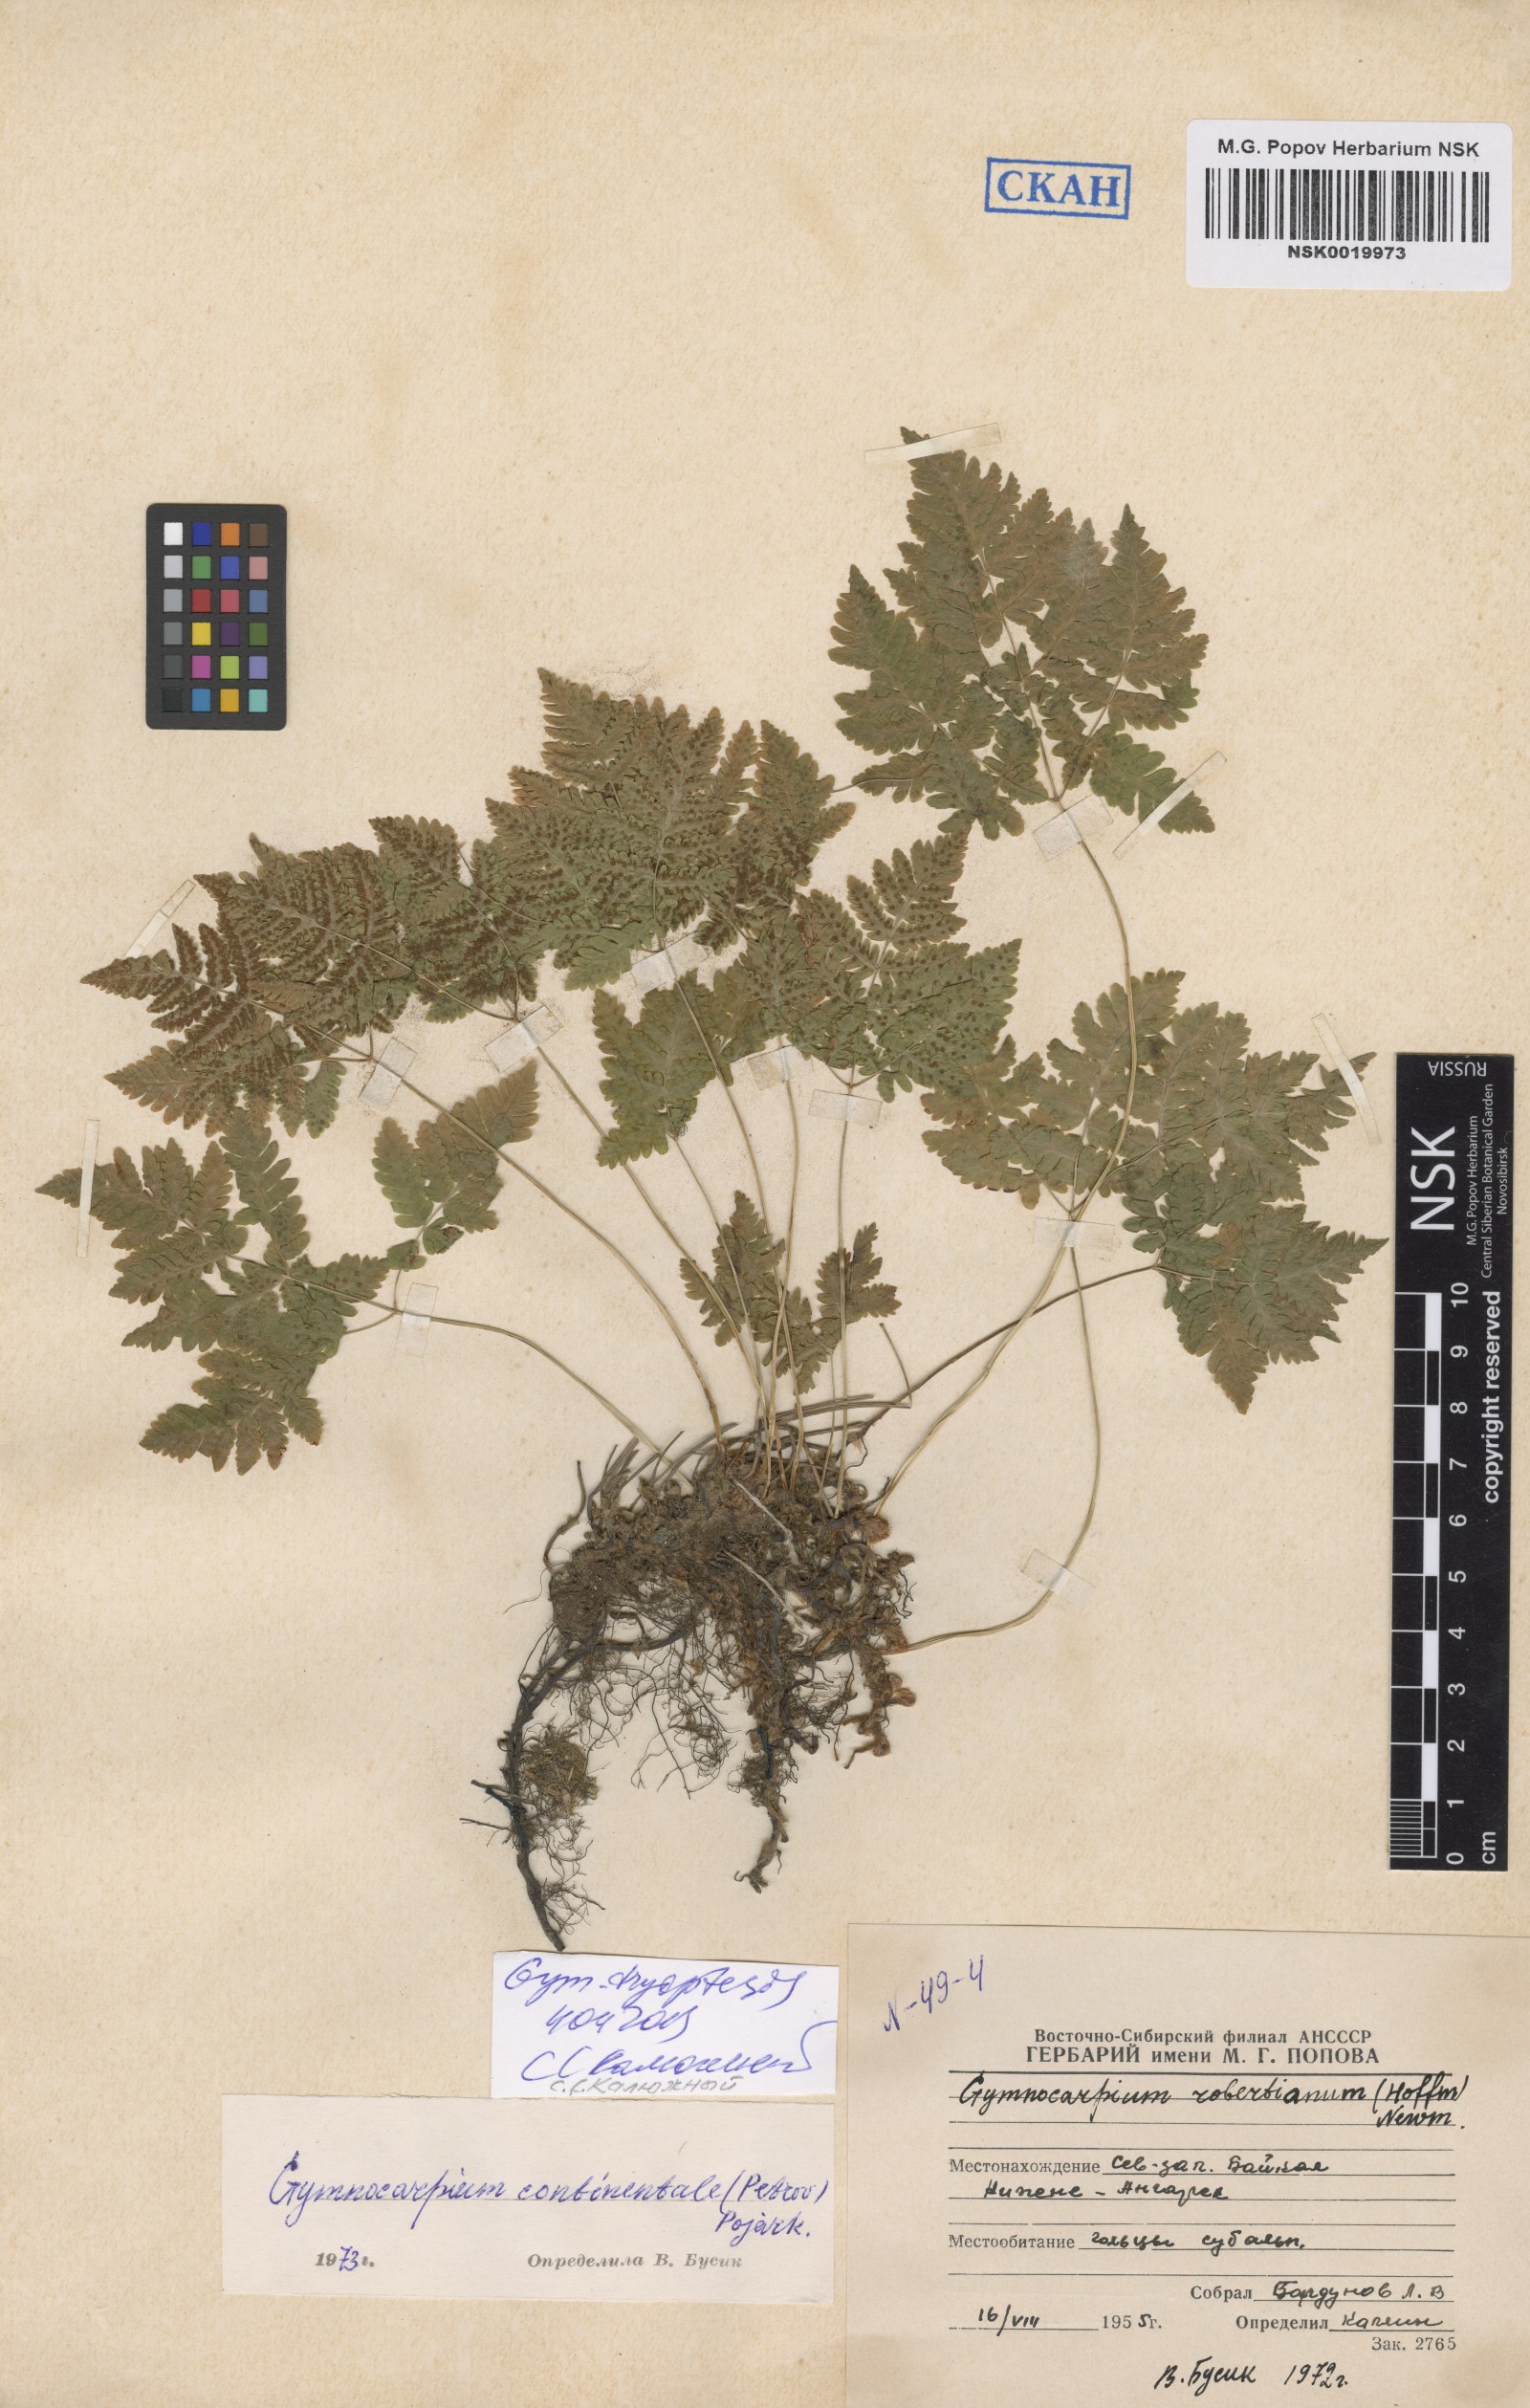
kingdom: Plantae
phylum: Tracheophyta
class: Polypodiopsida
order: Polypodiales
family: Cystopteridaceae
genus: Gymnocarpium
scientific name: Gymnocarpium dryopteris
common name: Oak fern
